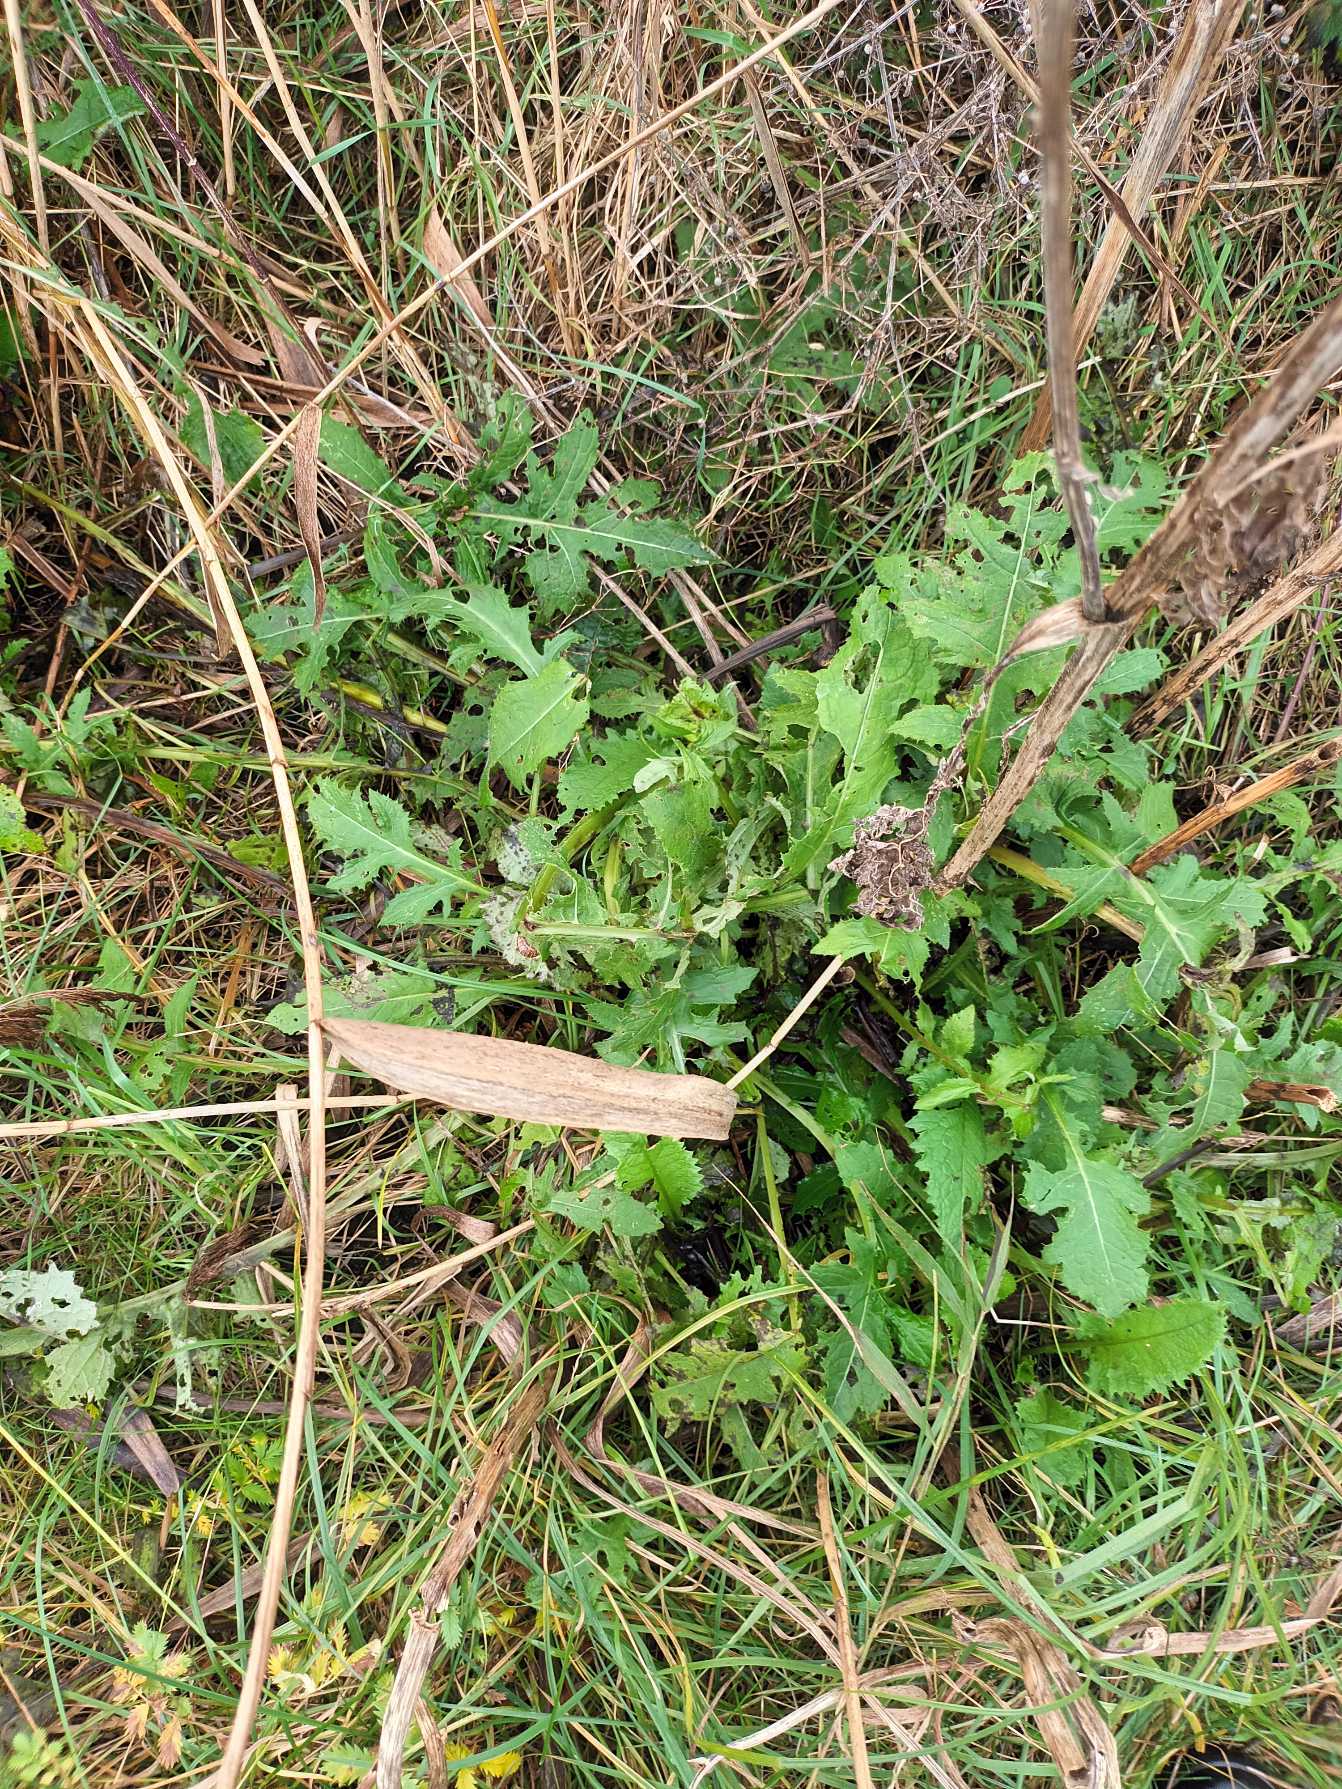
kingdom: Plantae
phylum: Tracheophyta
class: Magnoliopsida
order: Asterales
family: Asteraceae
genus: Cirsium
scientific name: Cirsium oleraceum
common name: Kål-tidsel
